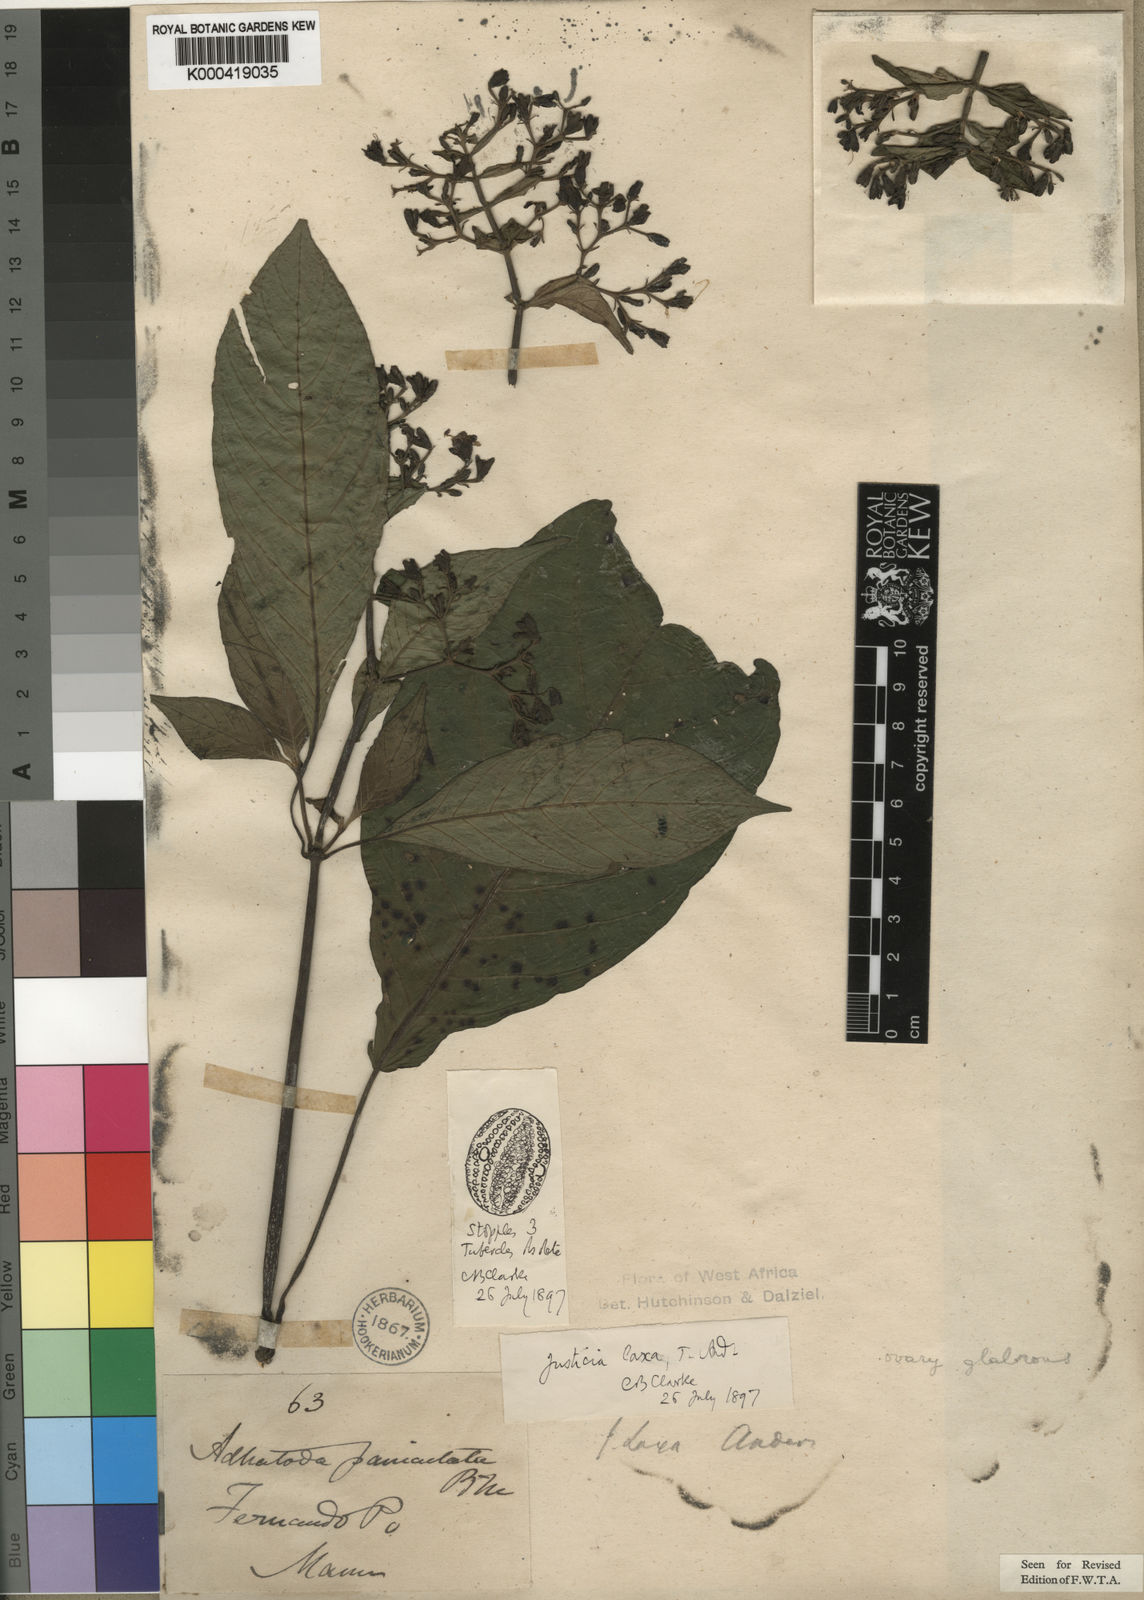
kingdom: Plantae
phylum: Tracheophyta
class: Magnoliopsida
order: Lamiales
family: Acanthaceae
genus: Justicia
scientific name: Justicia laxa
